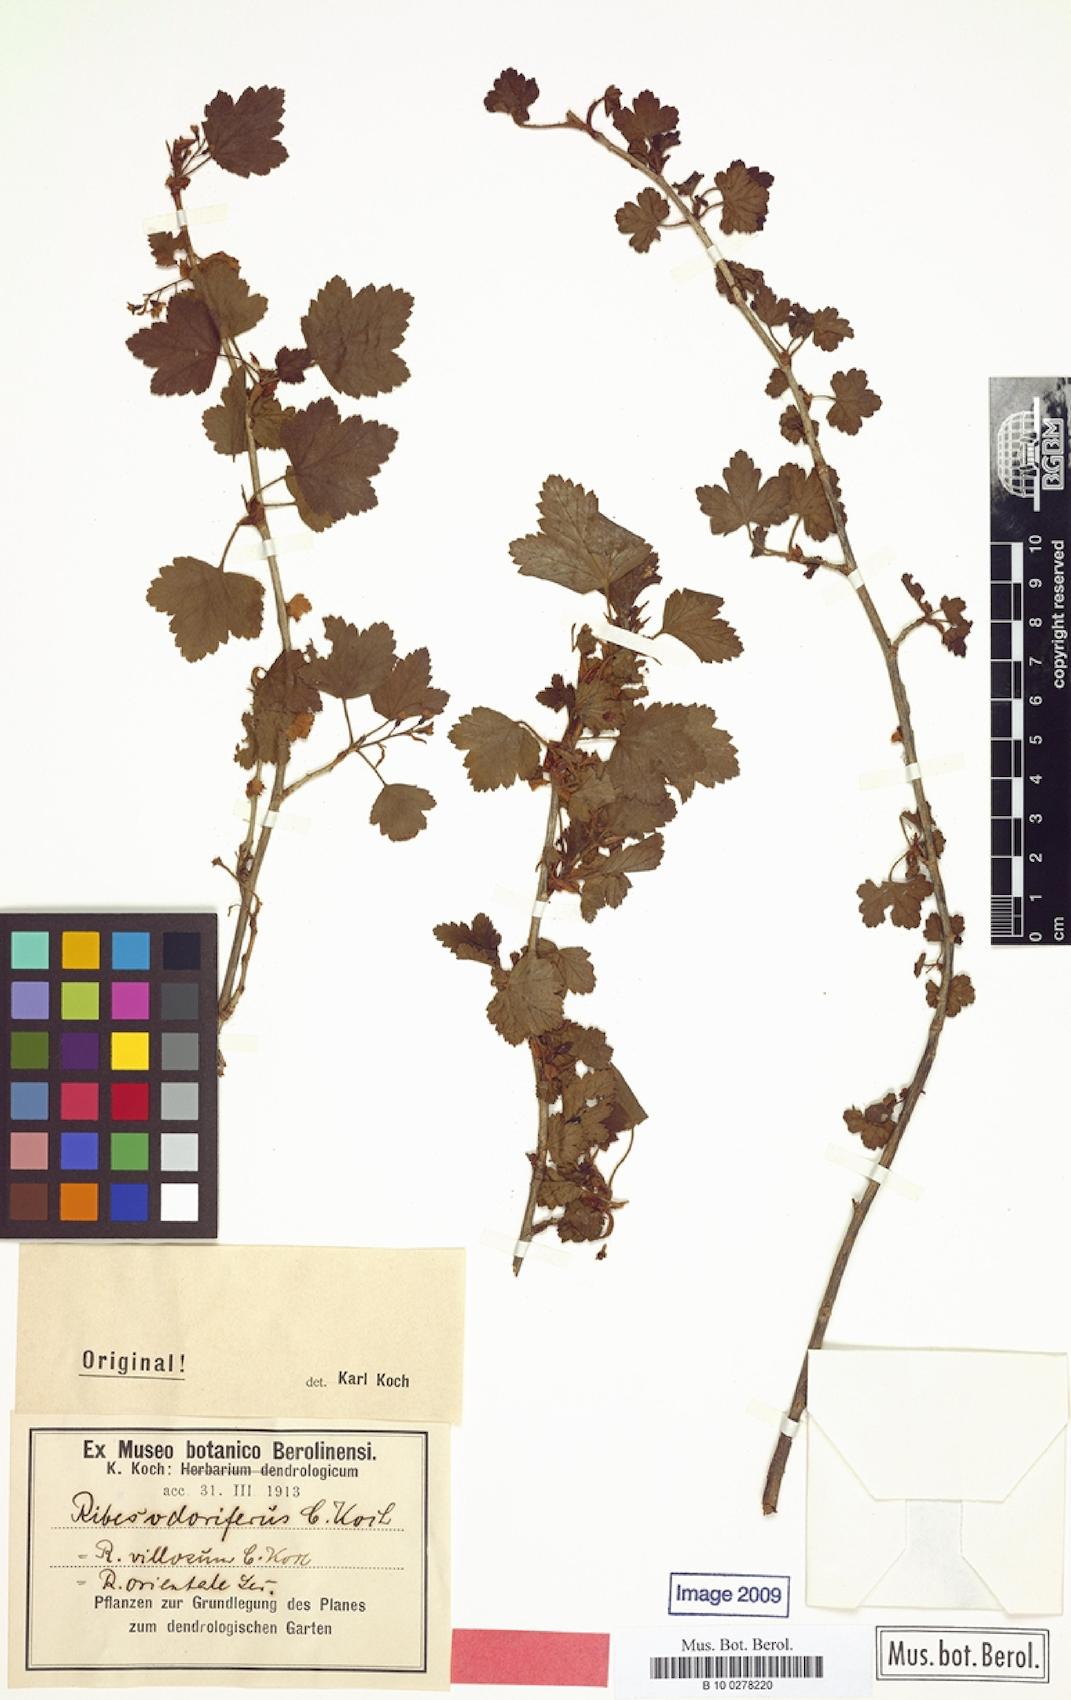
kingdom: Plantae
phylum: Tracheophyta
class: Magnoliopsida
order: Saxifragales
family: Grossulariaceae
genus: Ribes
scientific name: Ribes orientale
